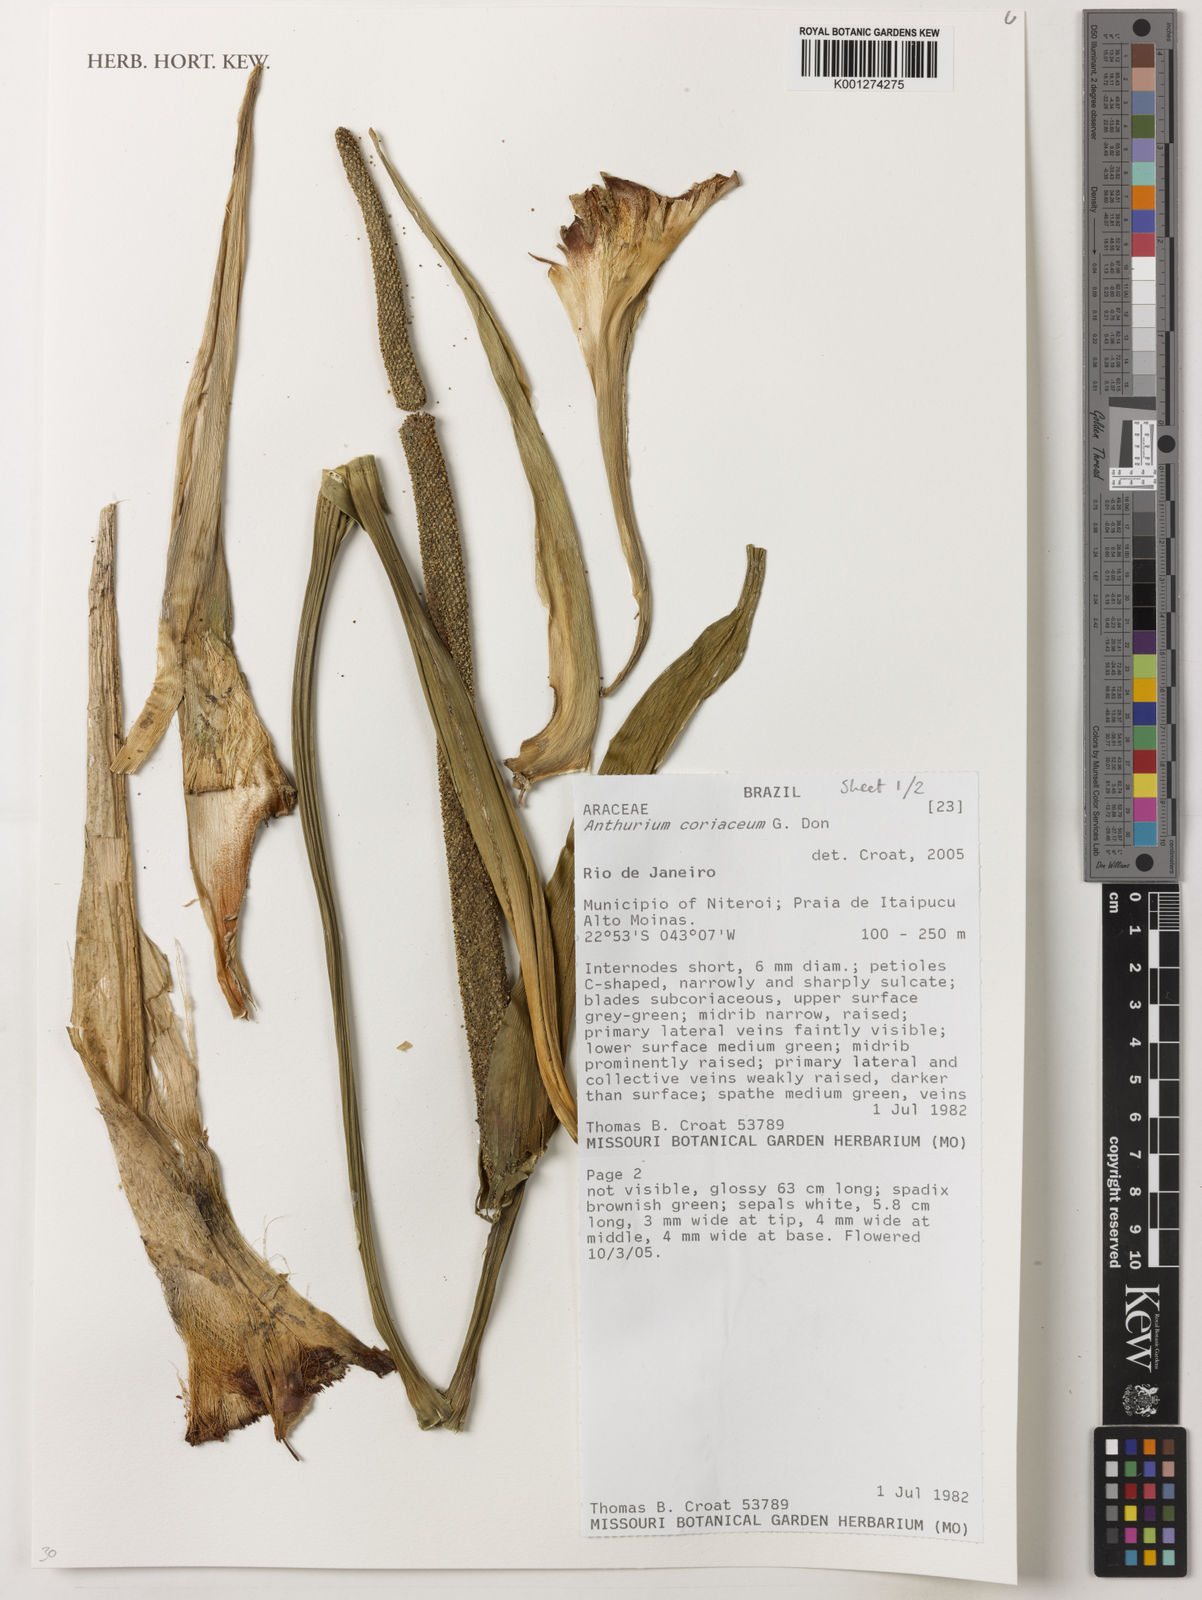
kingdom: Plantae
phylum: Tracheophyta
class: Liliopsida
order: Alismatales
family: Araceae
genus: Anthurium
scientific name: Anthurium
